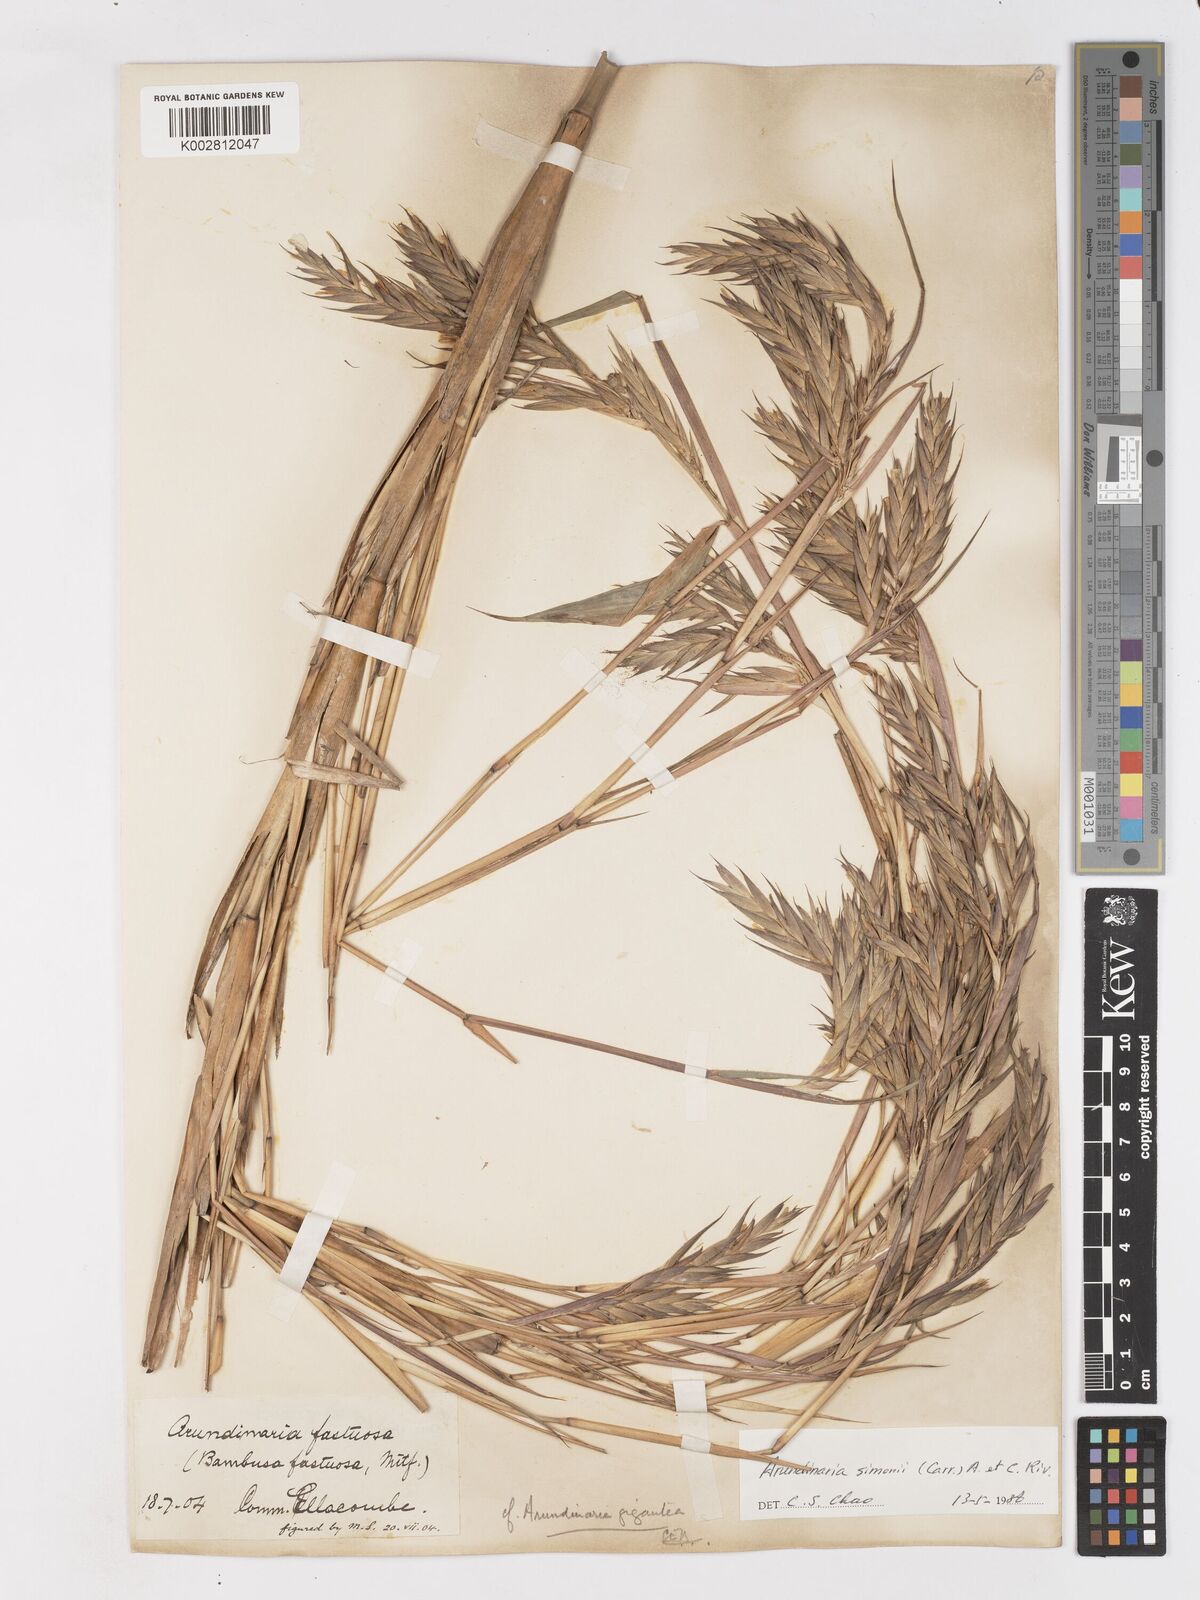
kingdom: Plantae
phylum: Tracheophyta
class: Liliopsida
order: Poales
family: Poaceae
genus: Pleioblastus
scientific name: Pleioblastus simonii
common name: Simon bamboo
